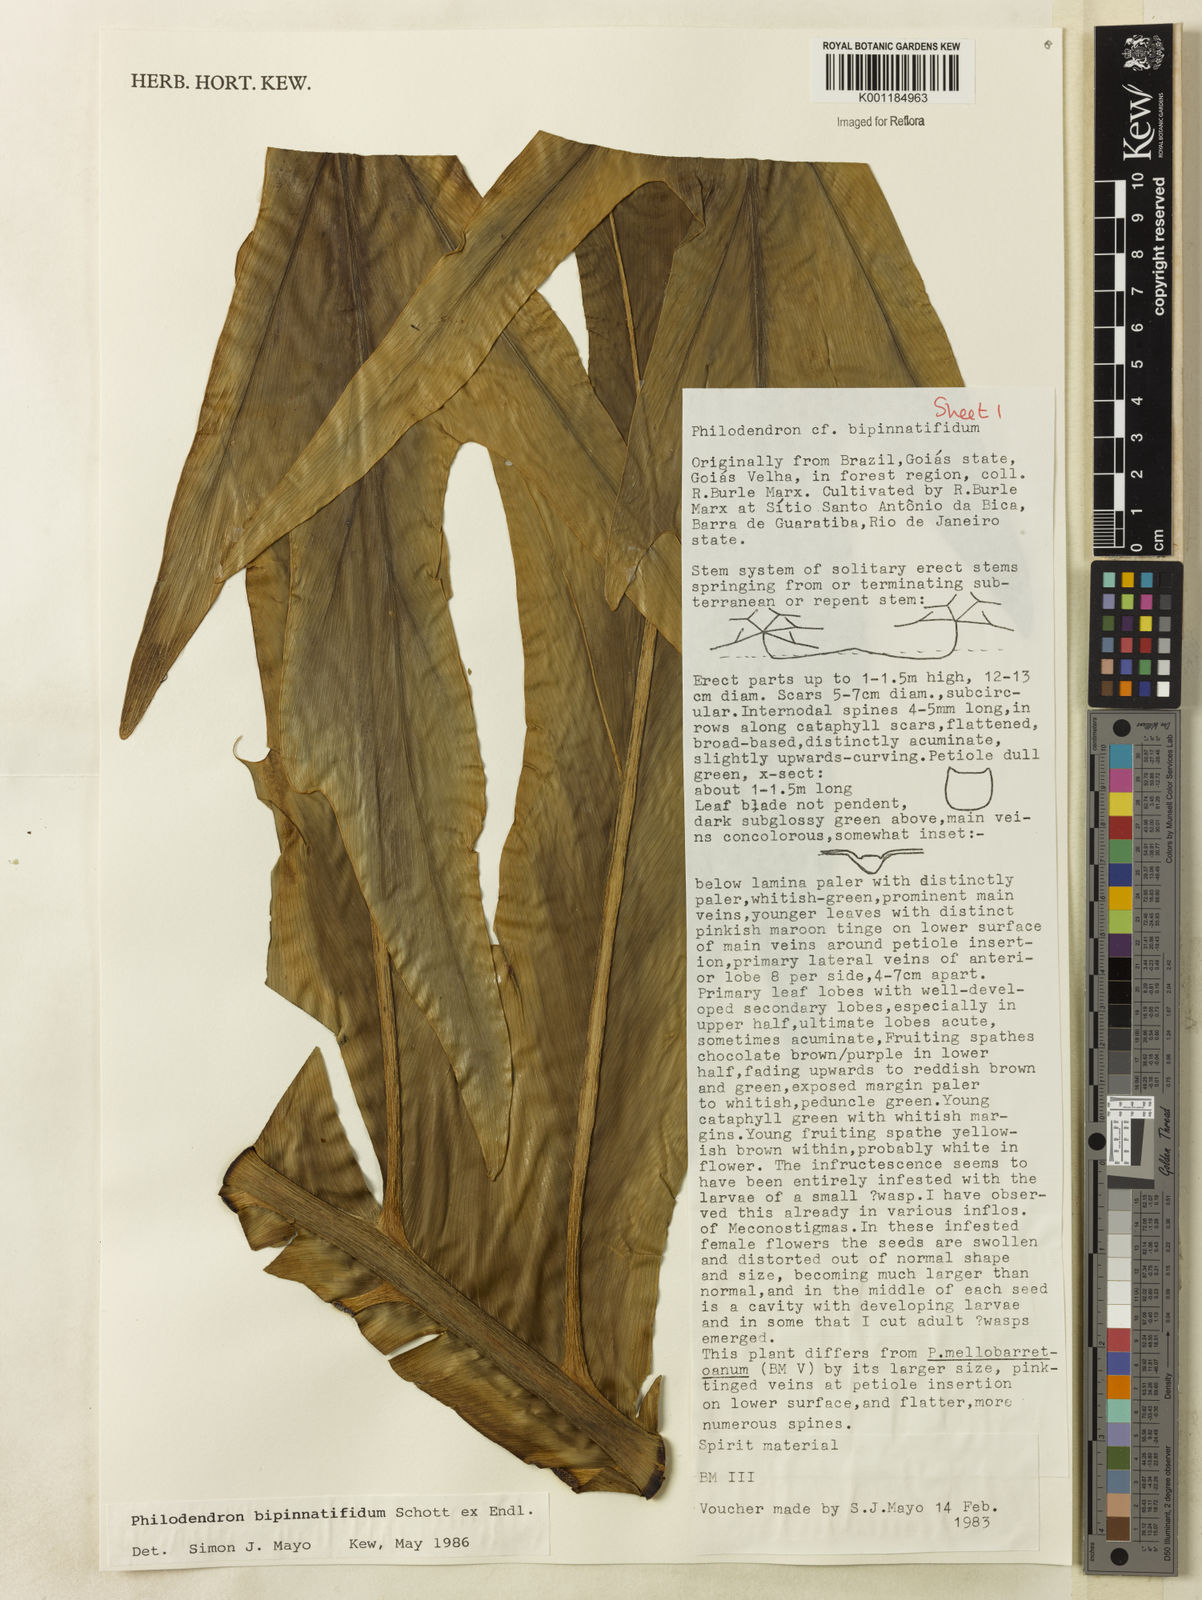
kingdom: Plantae
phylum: Tracheophyta
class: Liliopsida
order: Alismatales
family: Araceae
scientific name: Araceae
